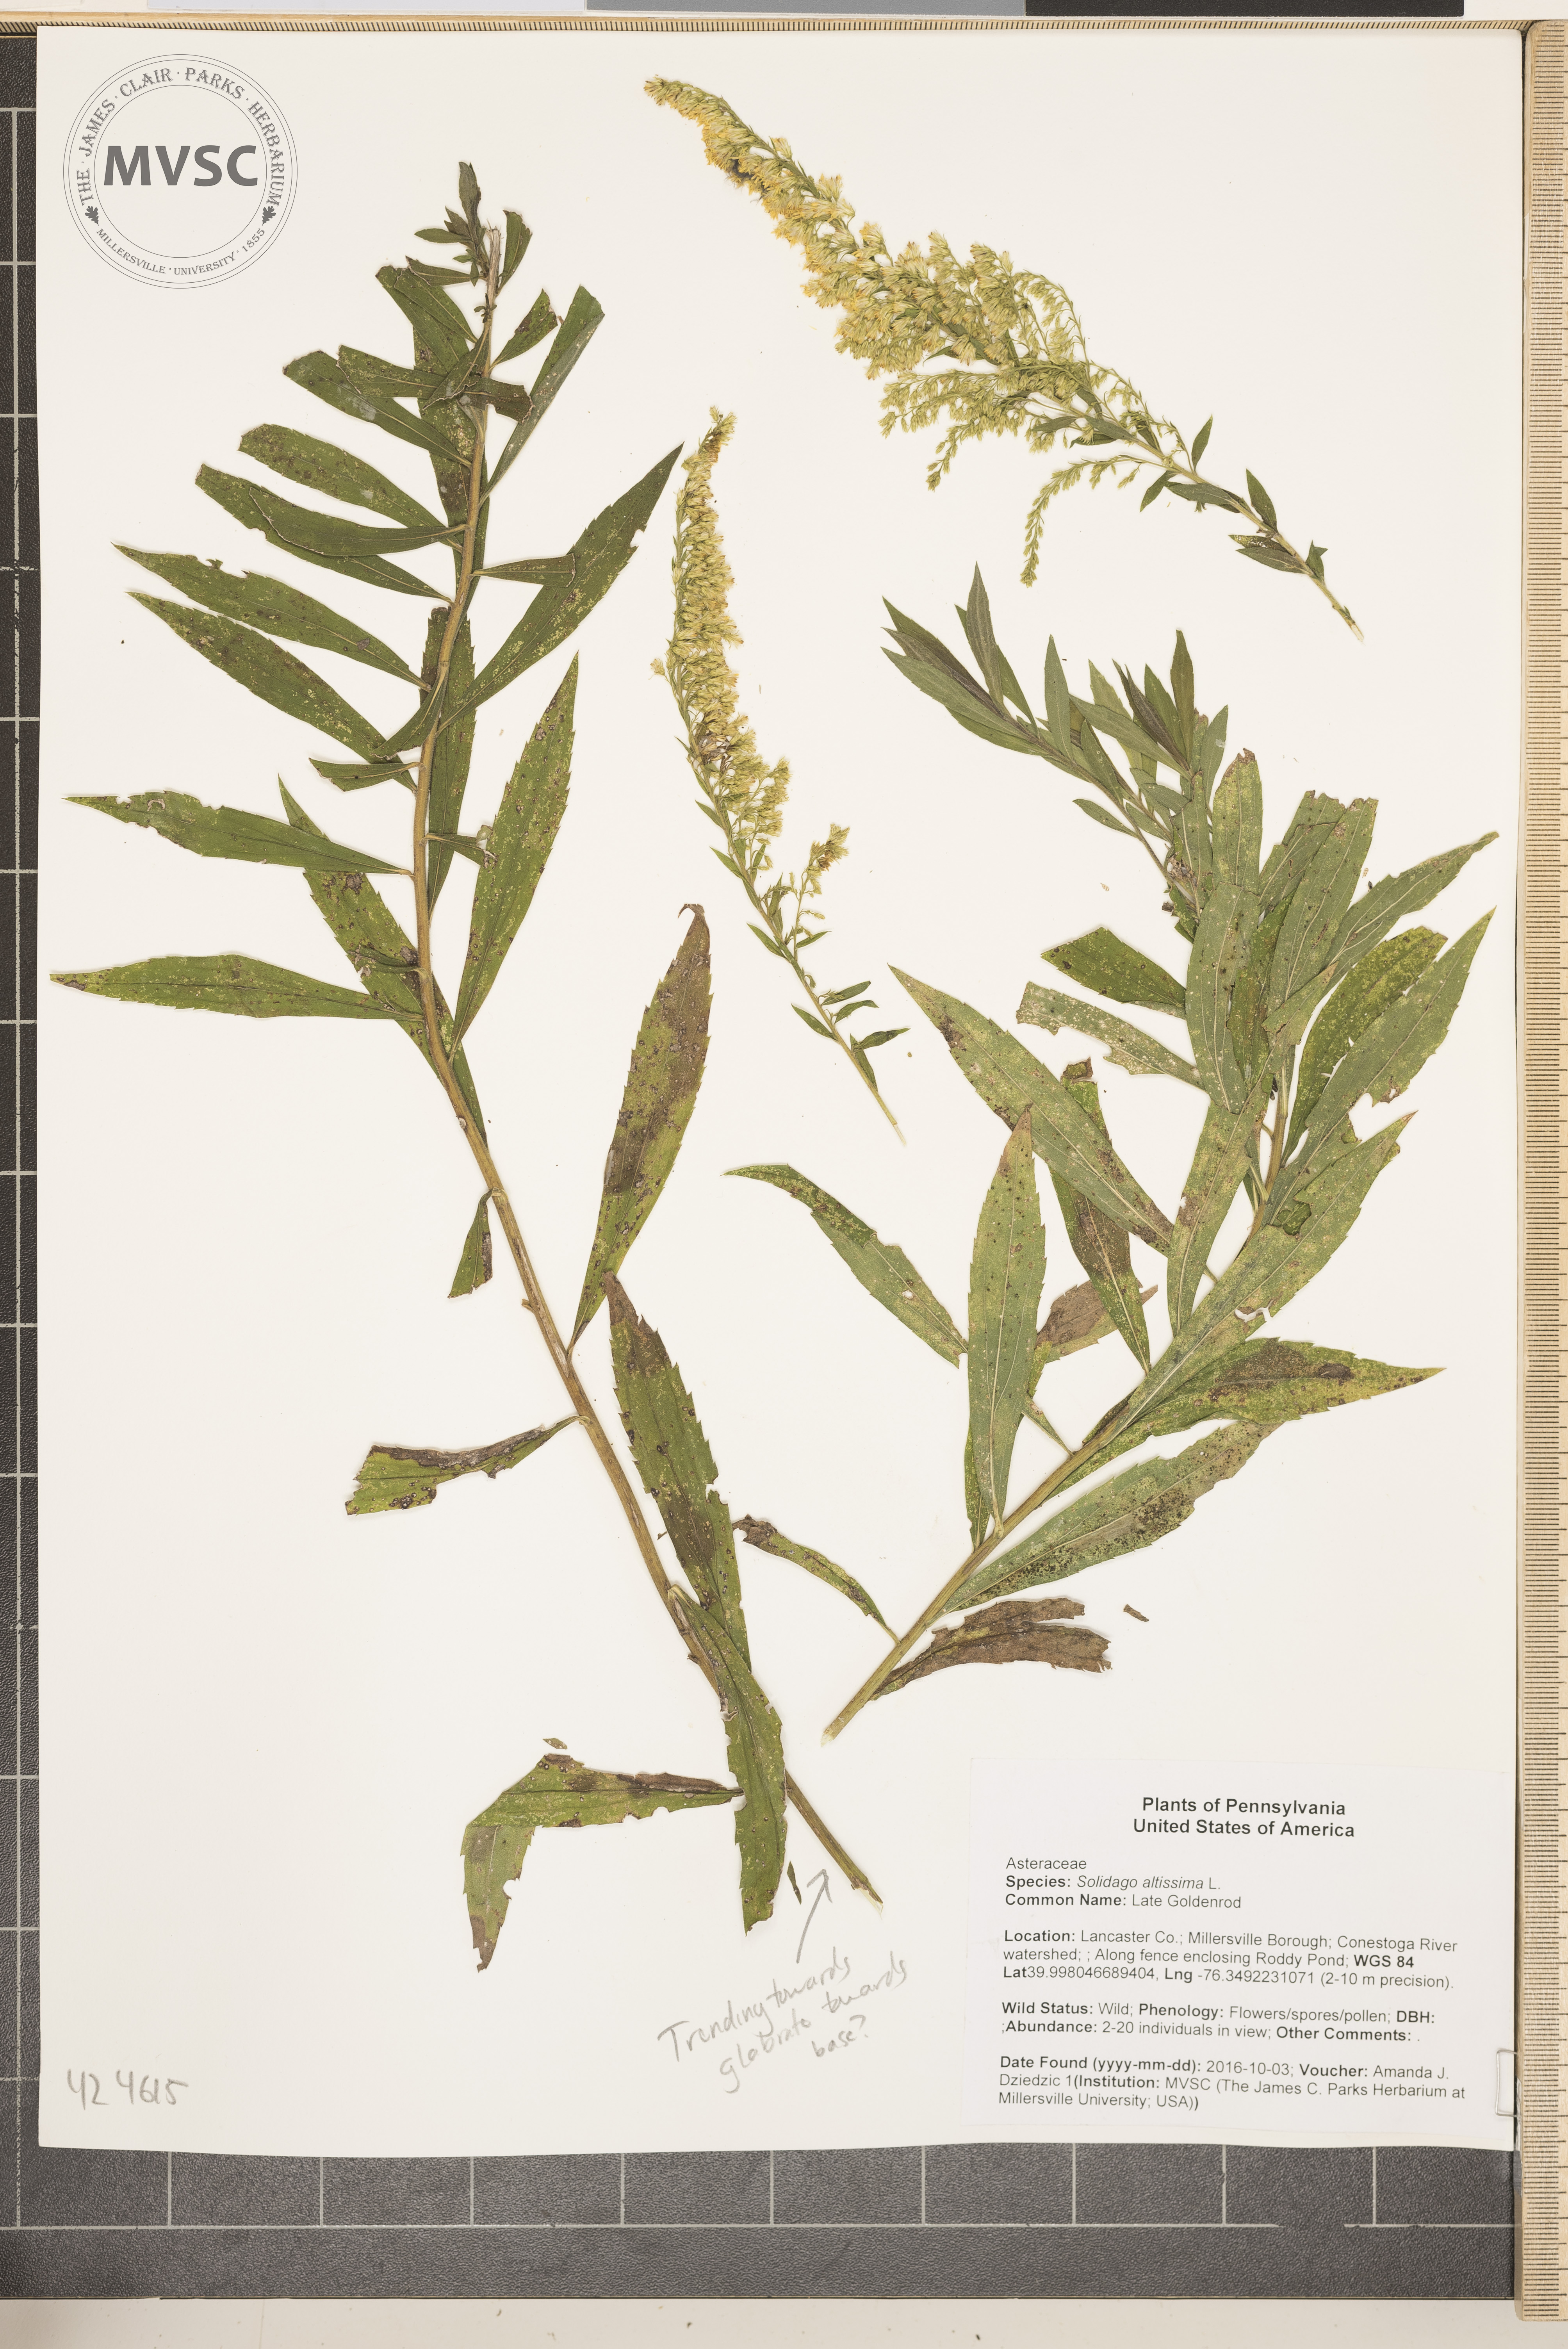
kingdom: Plantae
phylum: Tracheophyta
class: Magnoliopsida
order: Asterales
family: Asteraceae
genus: Solidago
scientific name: Solidago altissima
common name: Late Goldenrod
